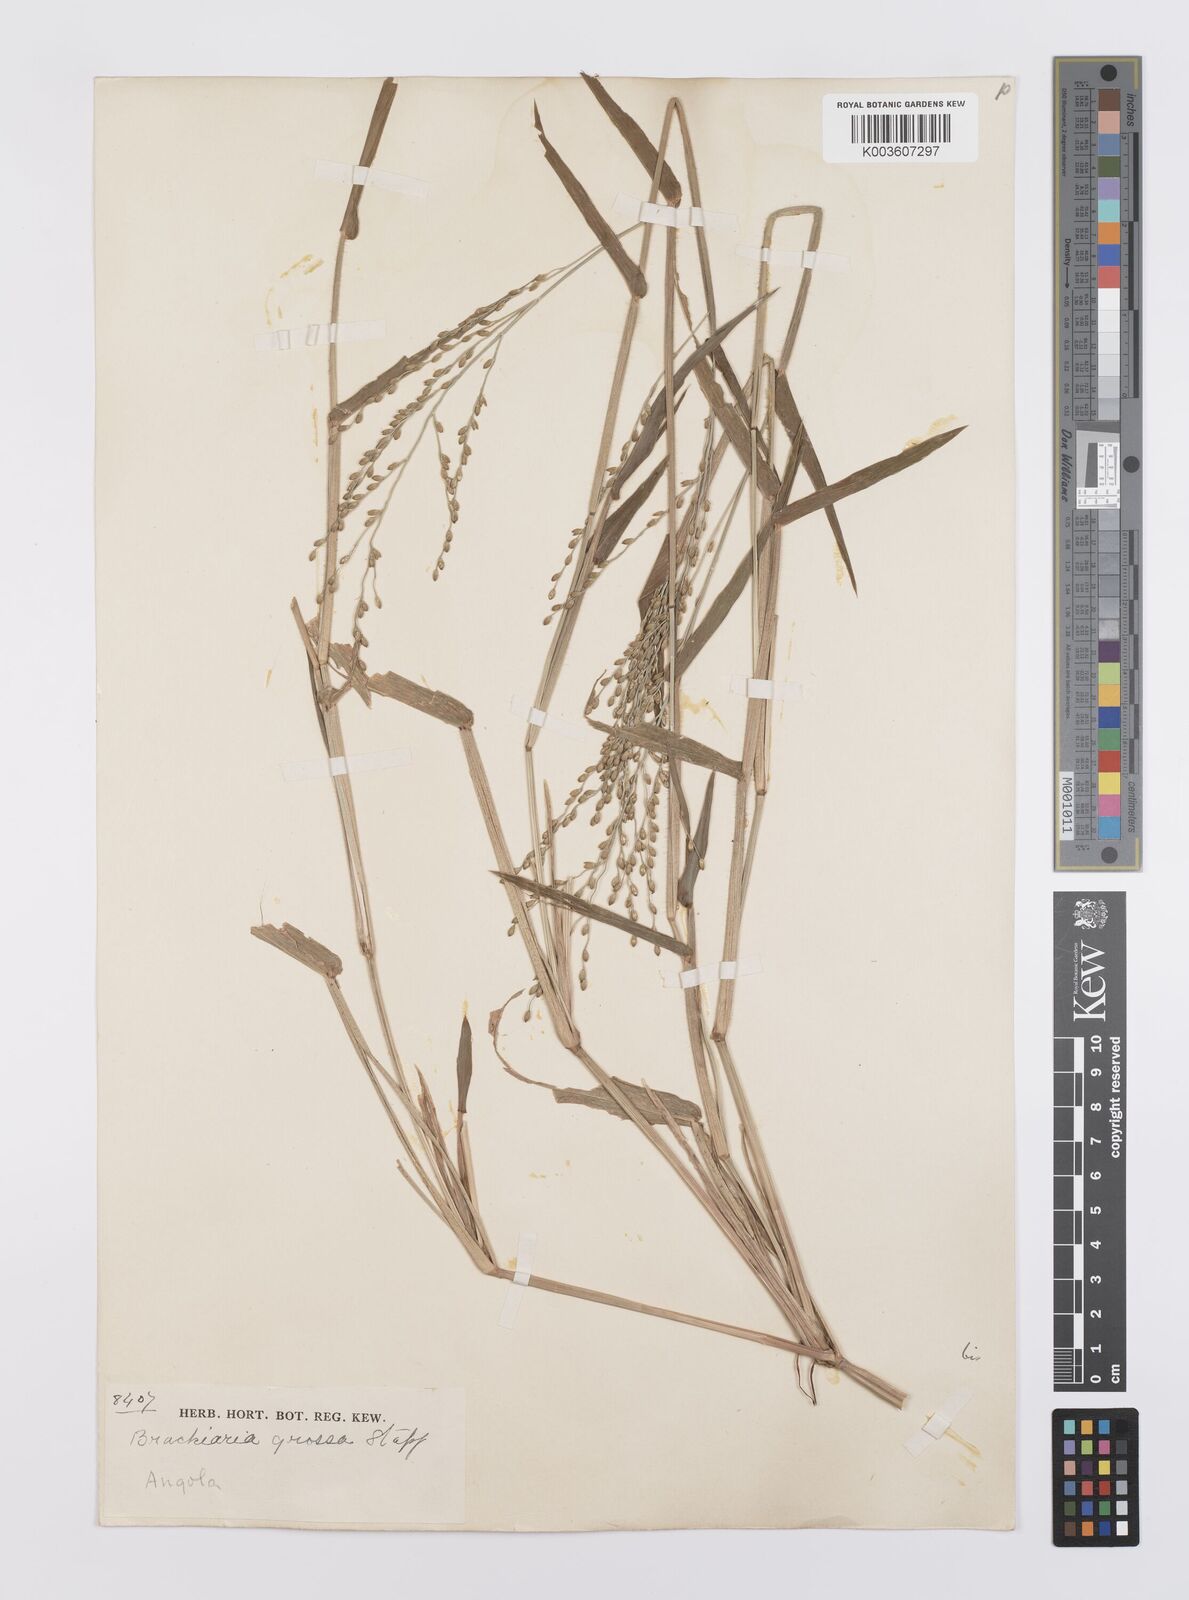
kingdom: Plantae
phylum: Tracheophyta
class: Liliopsida
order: Poales
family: Poaceae
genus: Urochloa
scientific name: Urochloa Brachiaria grossa
